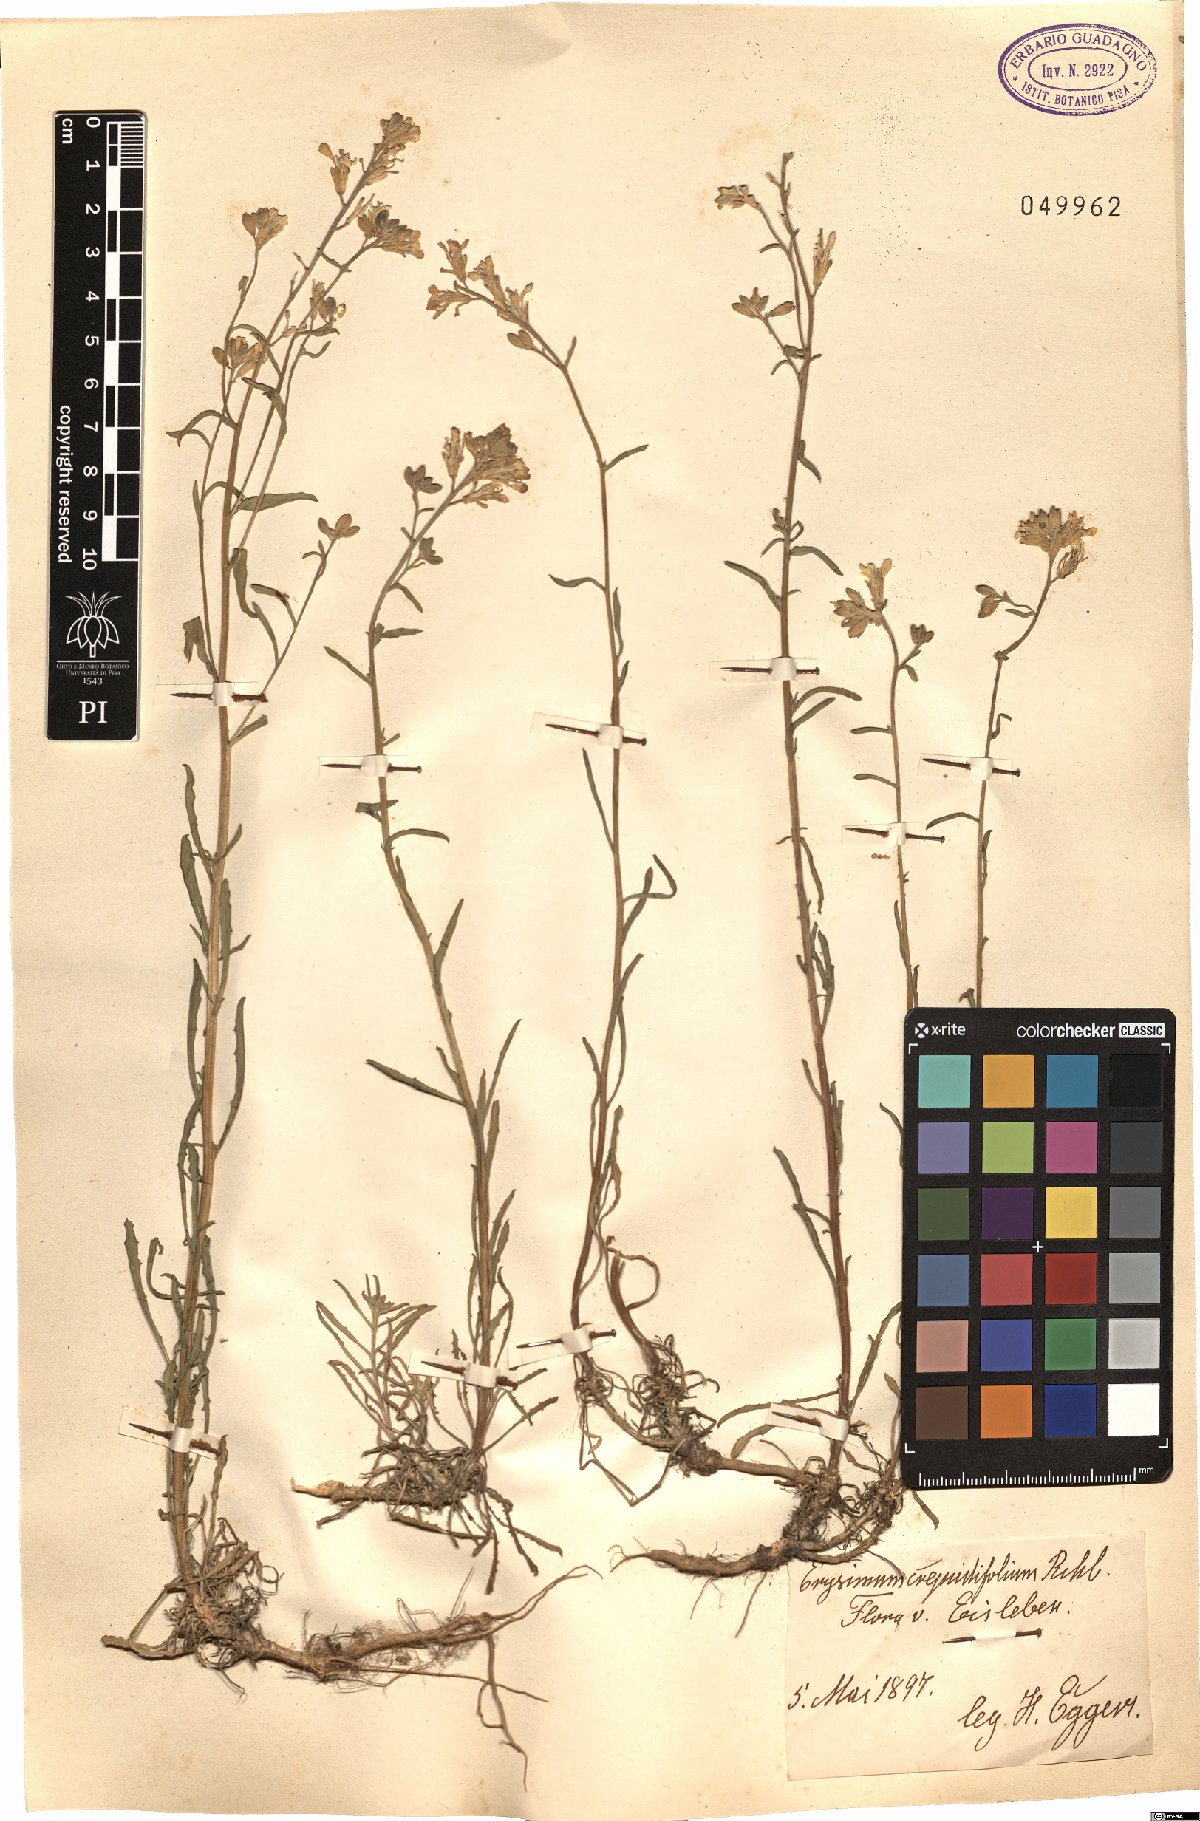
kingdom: Plantae
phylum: Tracheophyta
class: Magnoliopsida
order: Brassicales
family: Brassicaceae
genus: Erysimum
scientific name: Erysimum crepidifolium
